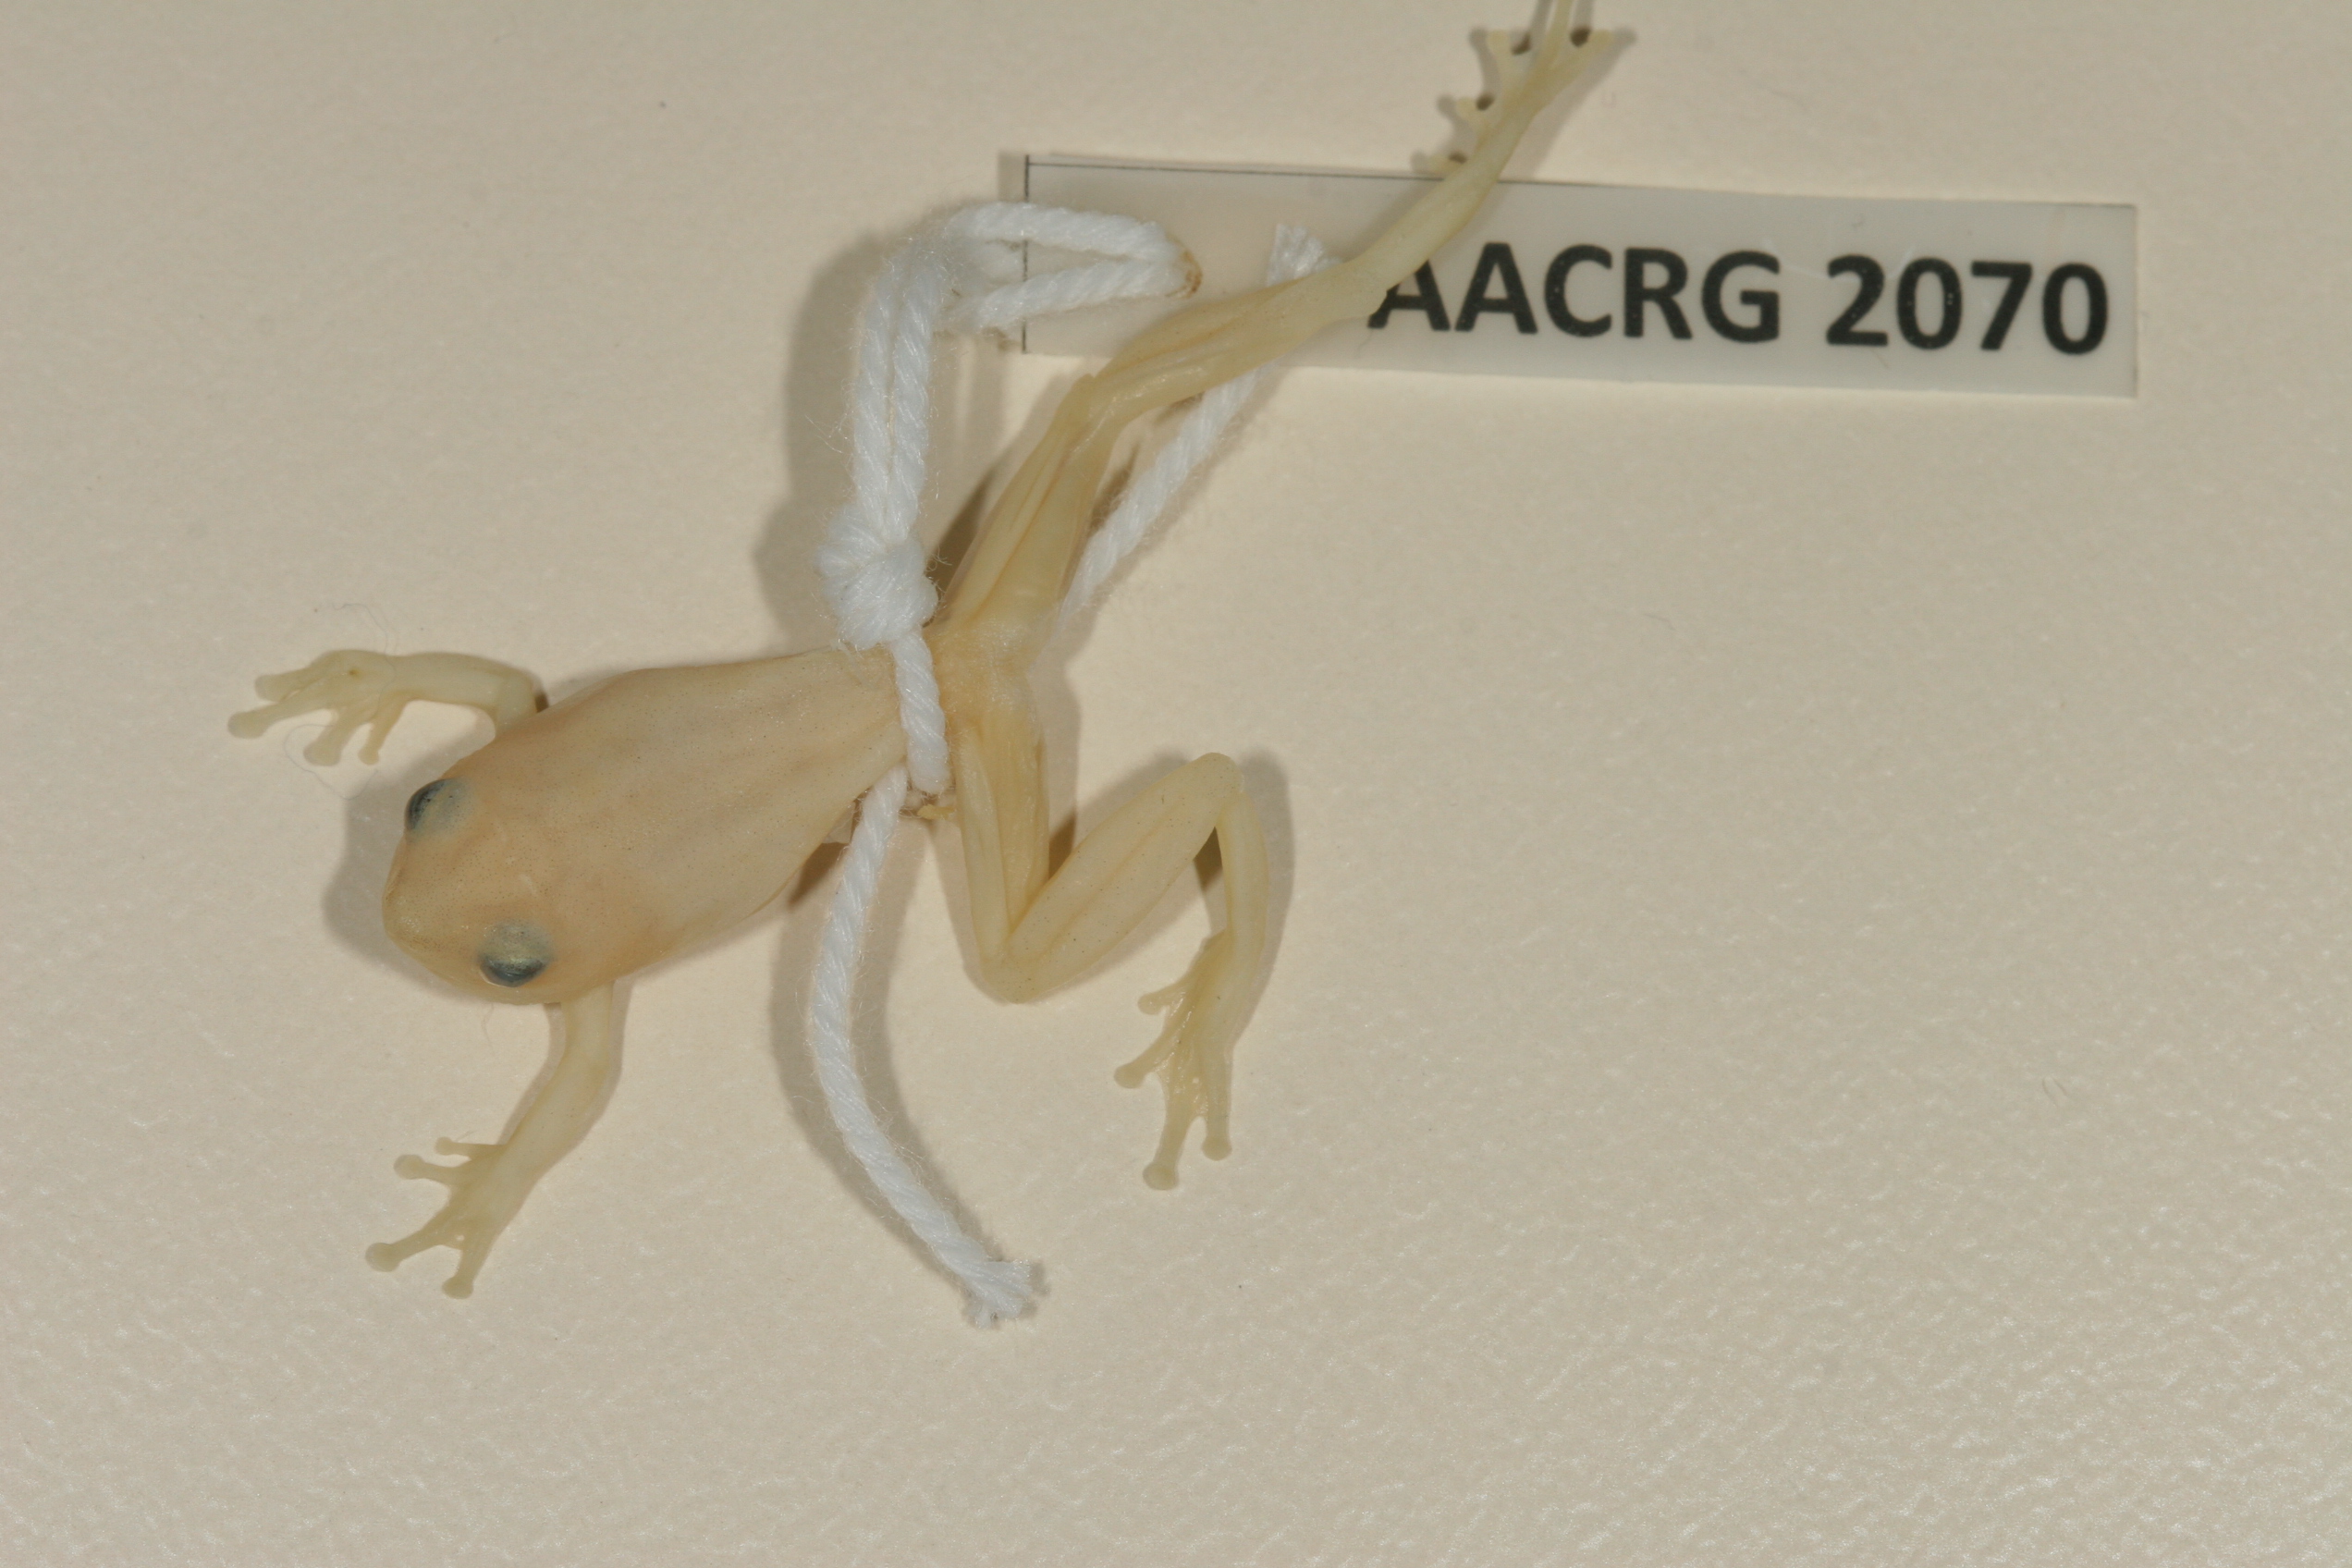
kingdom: Animalia
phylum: Chordata
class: Amphibia
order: Anura
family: Hyperoliidae
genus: Hyperolius
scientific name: Hyperolius pusillus
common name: Water lily reed frog
